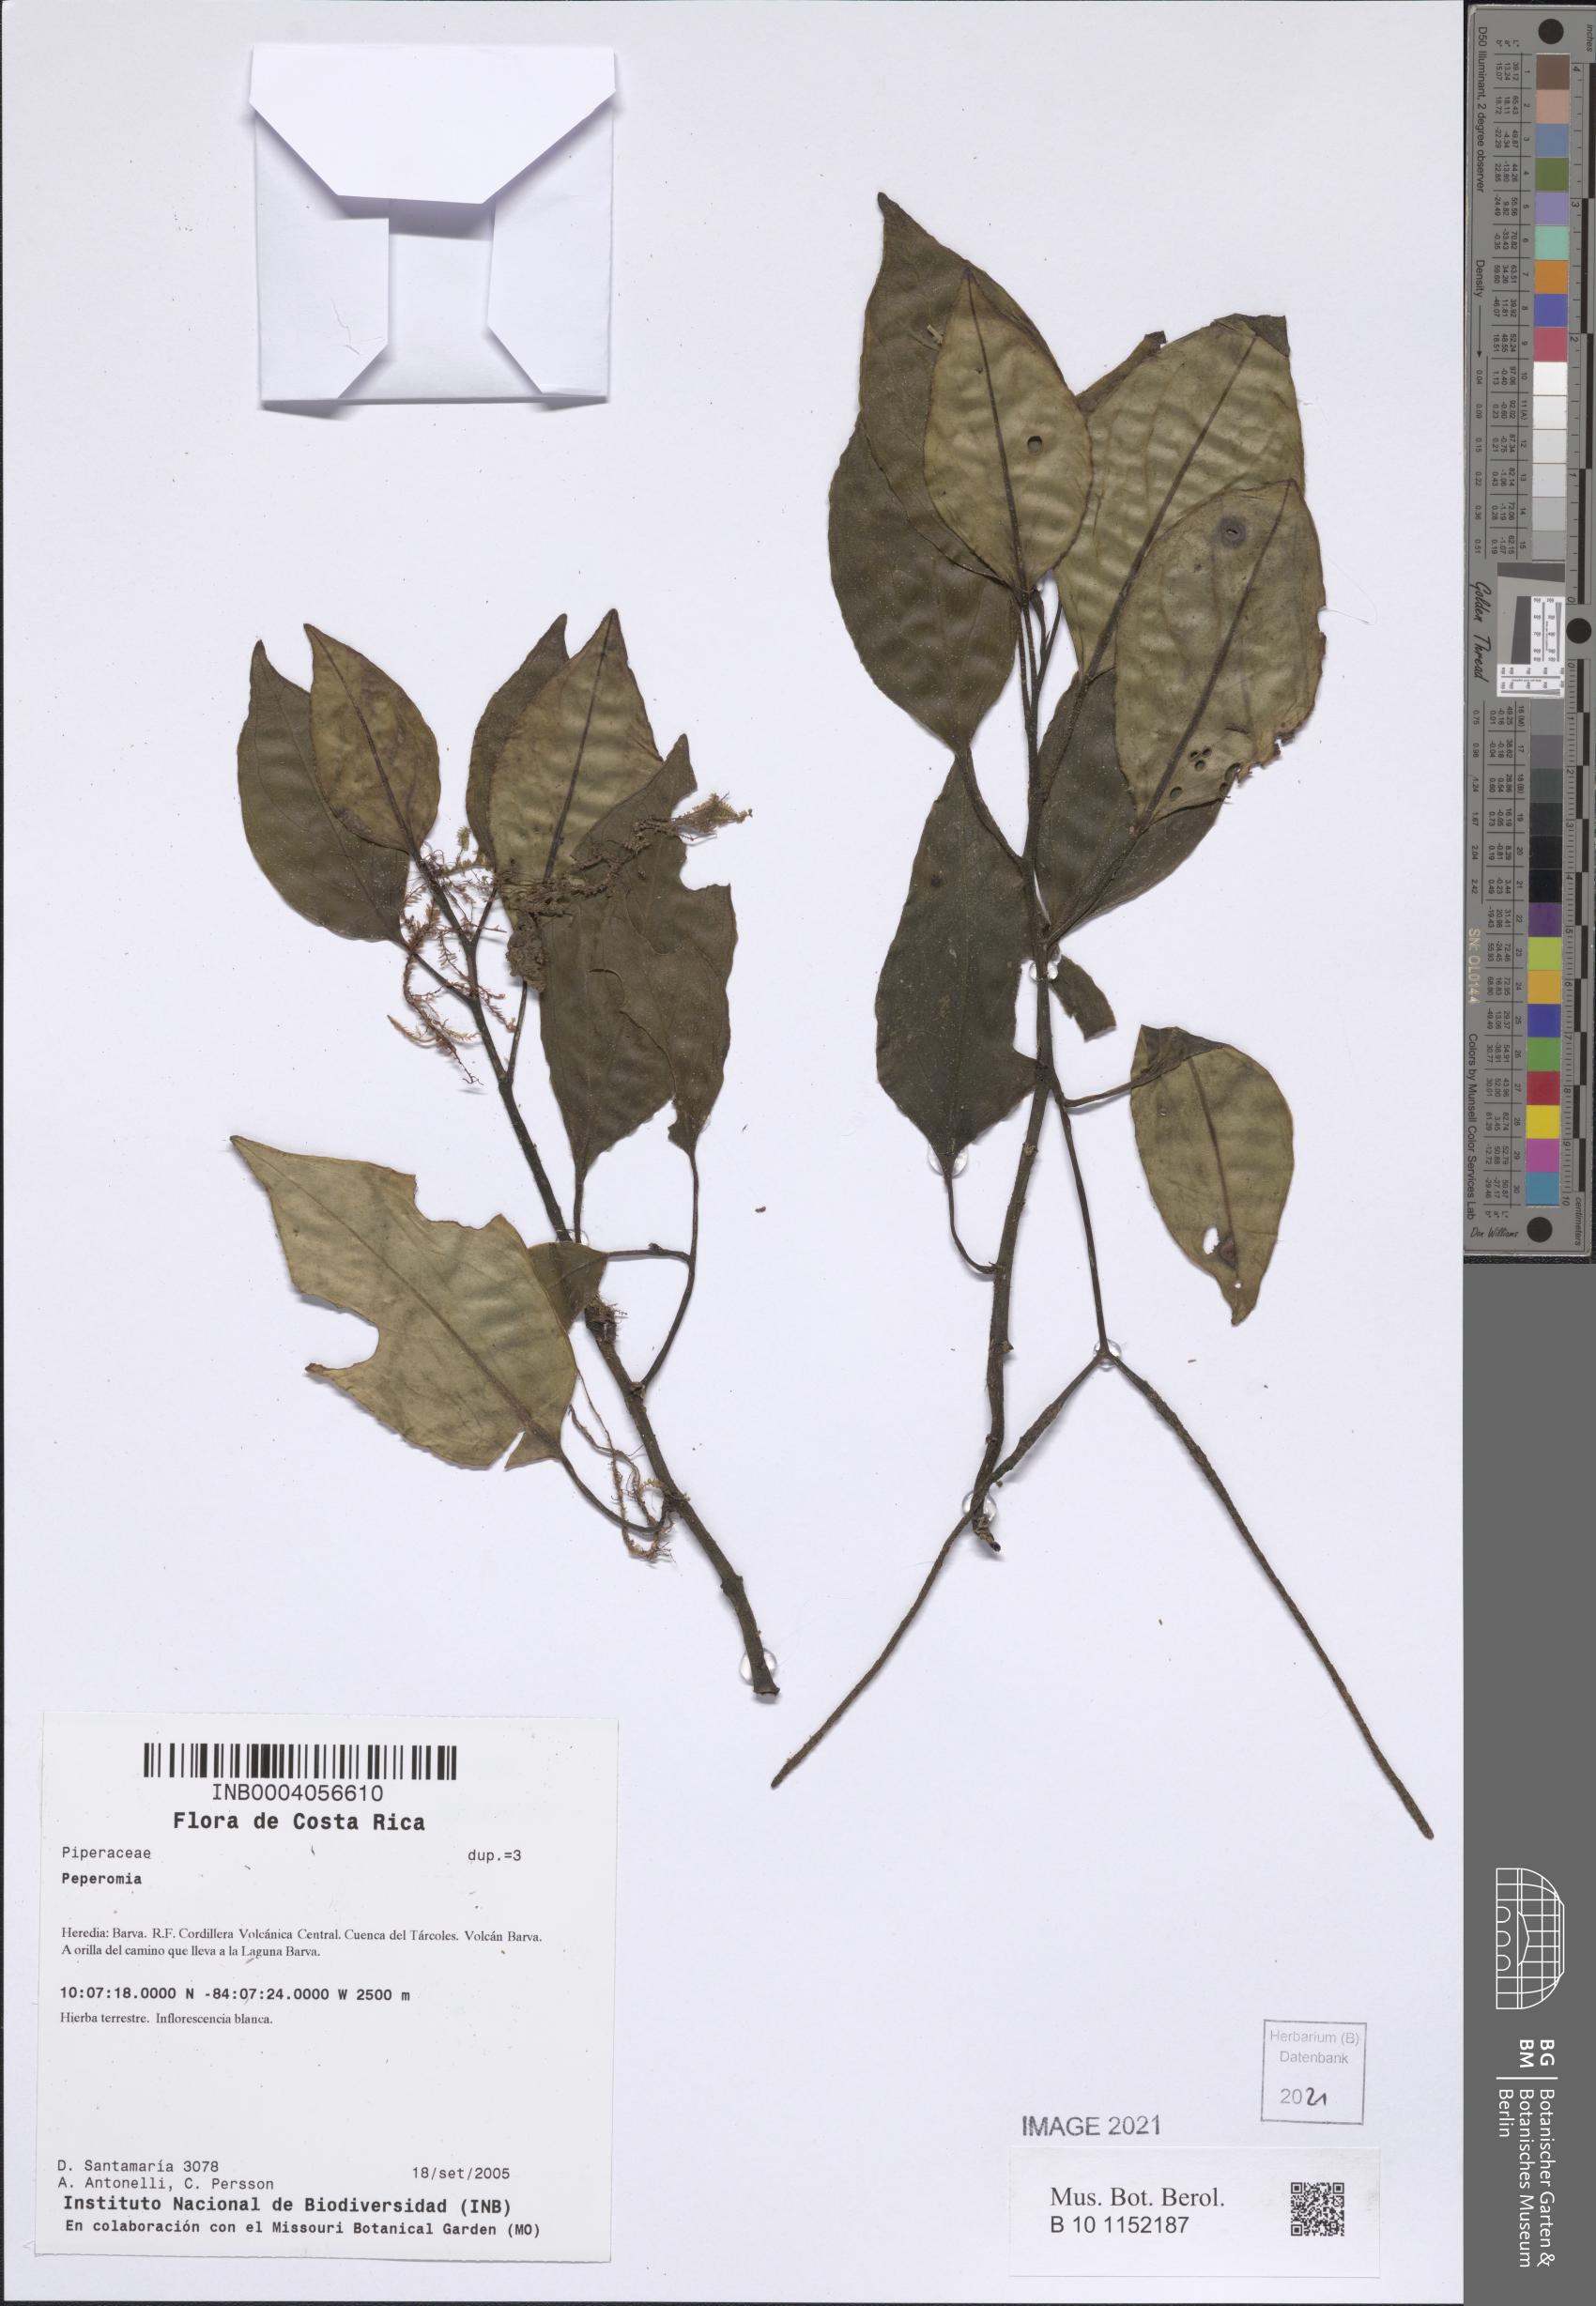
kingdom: Plantae
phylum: Tracheophyta
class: Magnoliopsida
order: Piperales
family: Piperaceae
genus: Peperomia
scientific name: Peperomia
